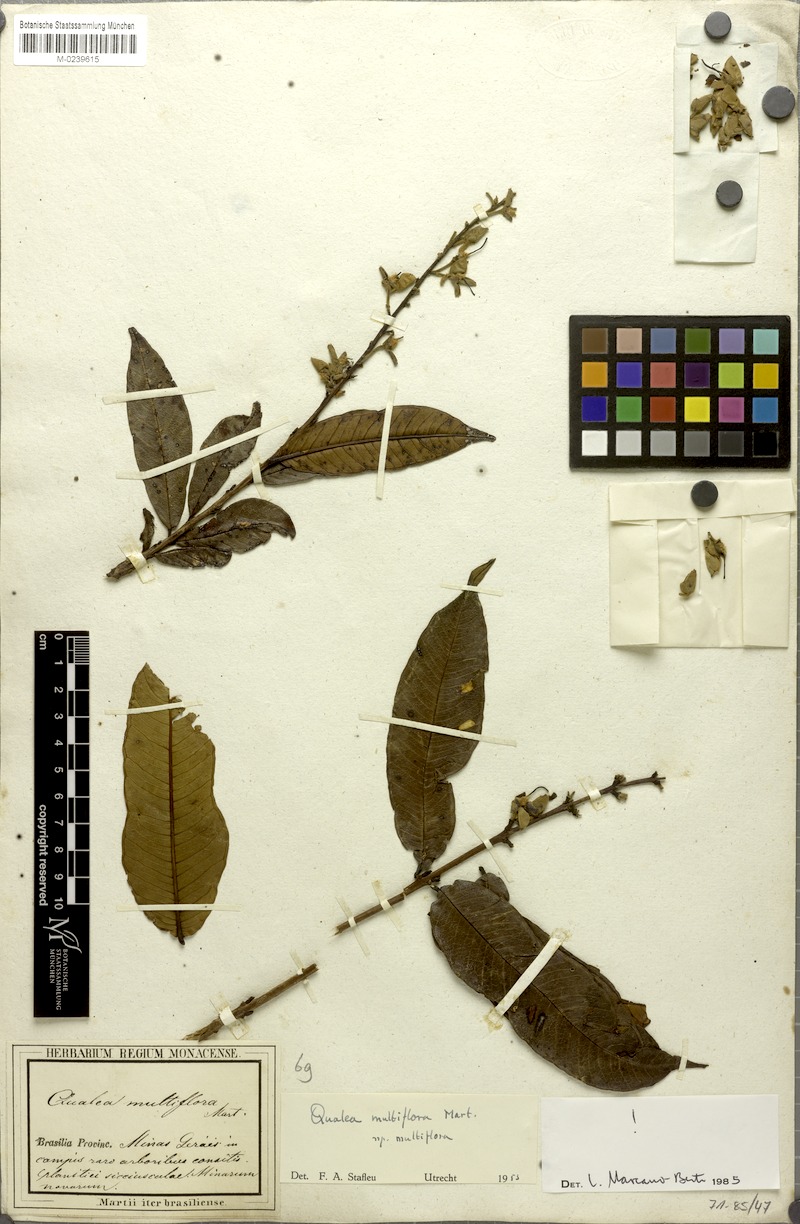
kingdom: Plantae
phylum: Tracheophyta
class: Magnoliopsida
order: Myrtales
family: Vochysiaceae
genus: Qualea
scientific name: Qualea multiflora
